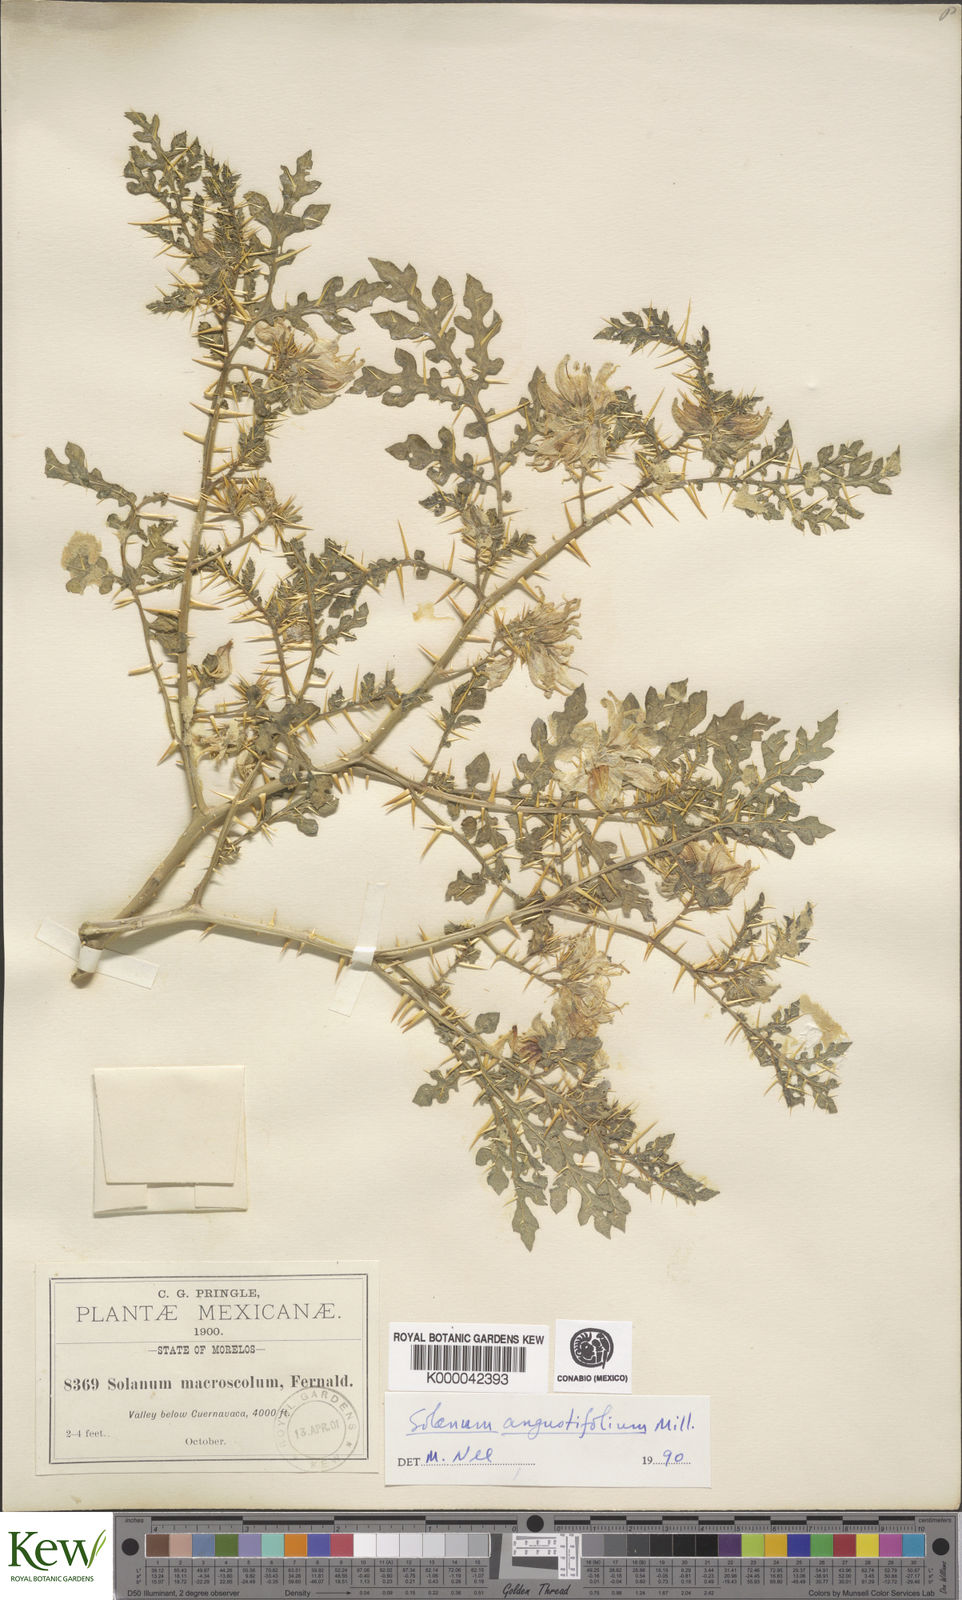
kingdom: Plantae
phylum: Tracheophyta
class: Magnoliopsida
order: Solanales
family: Solanaceae
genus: Solanum
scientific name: Solanum angustifolium
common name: Buffalobur nightshade
